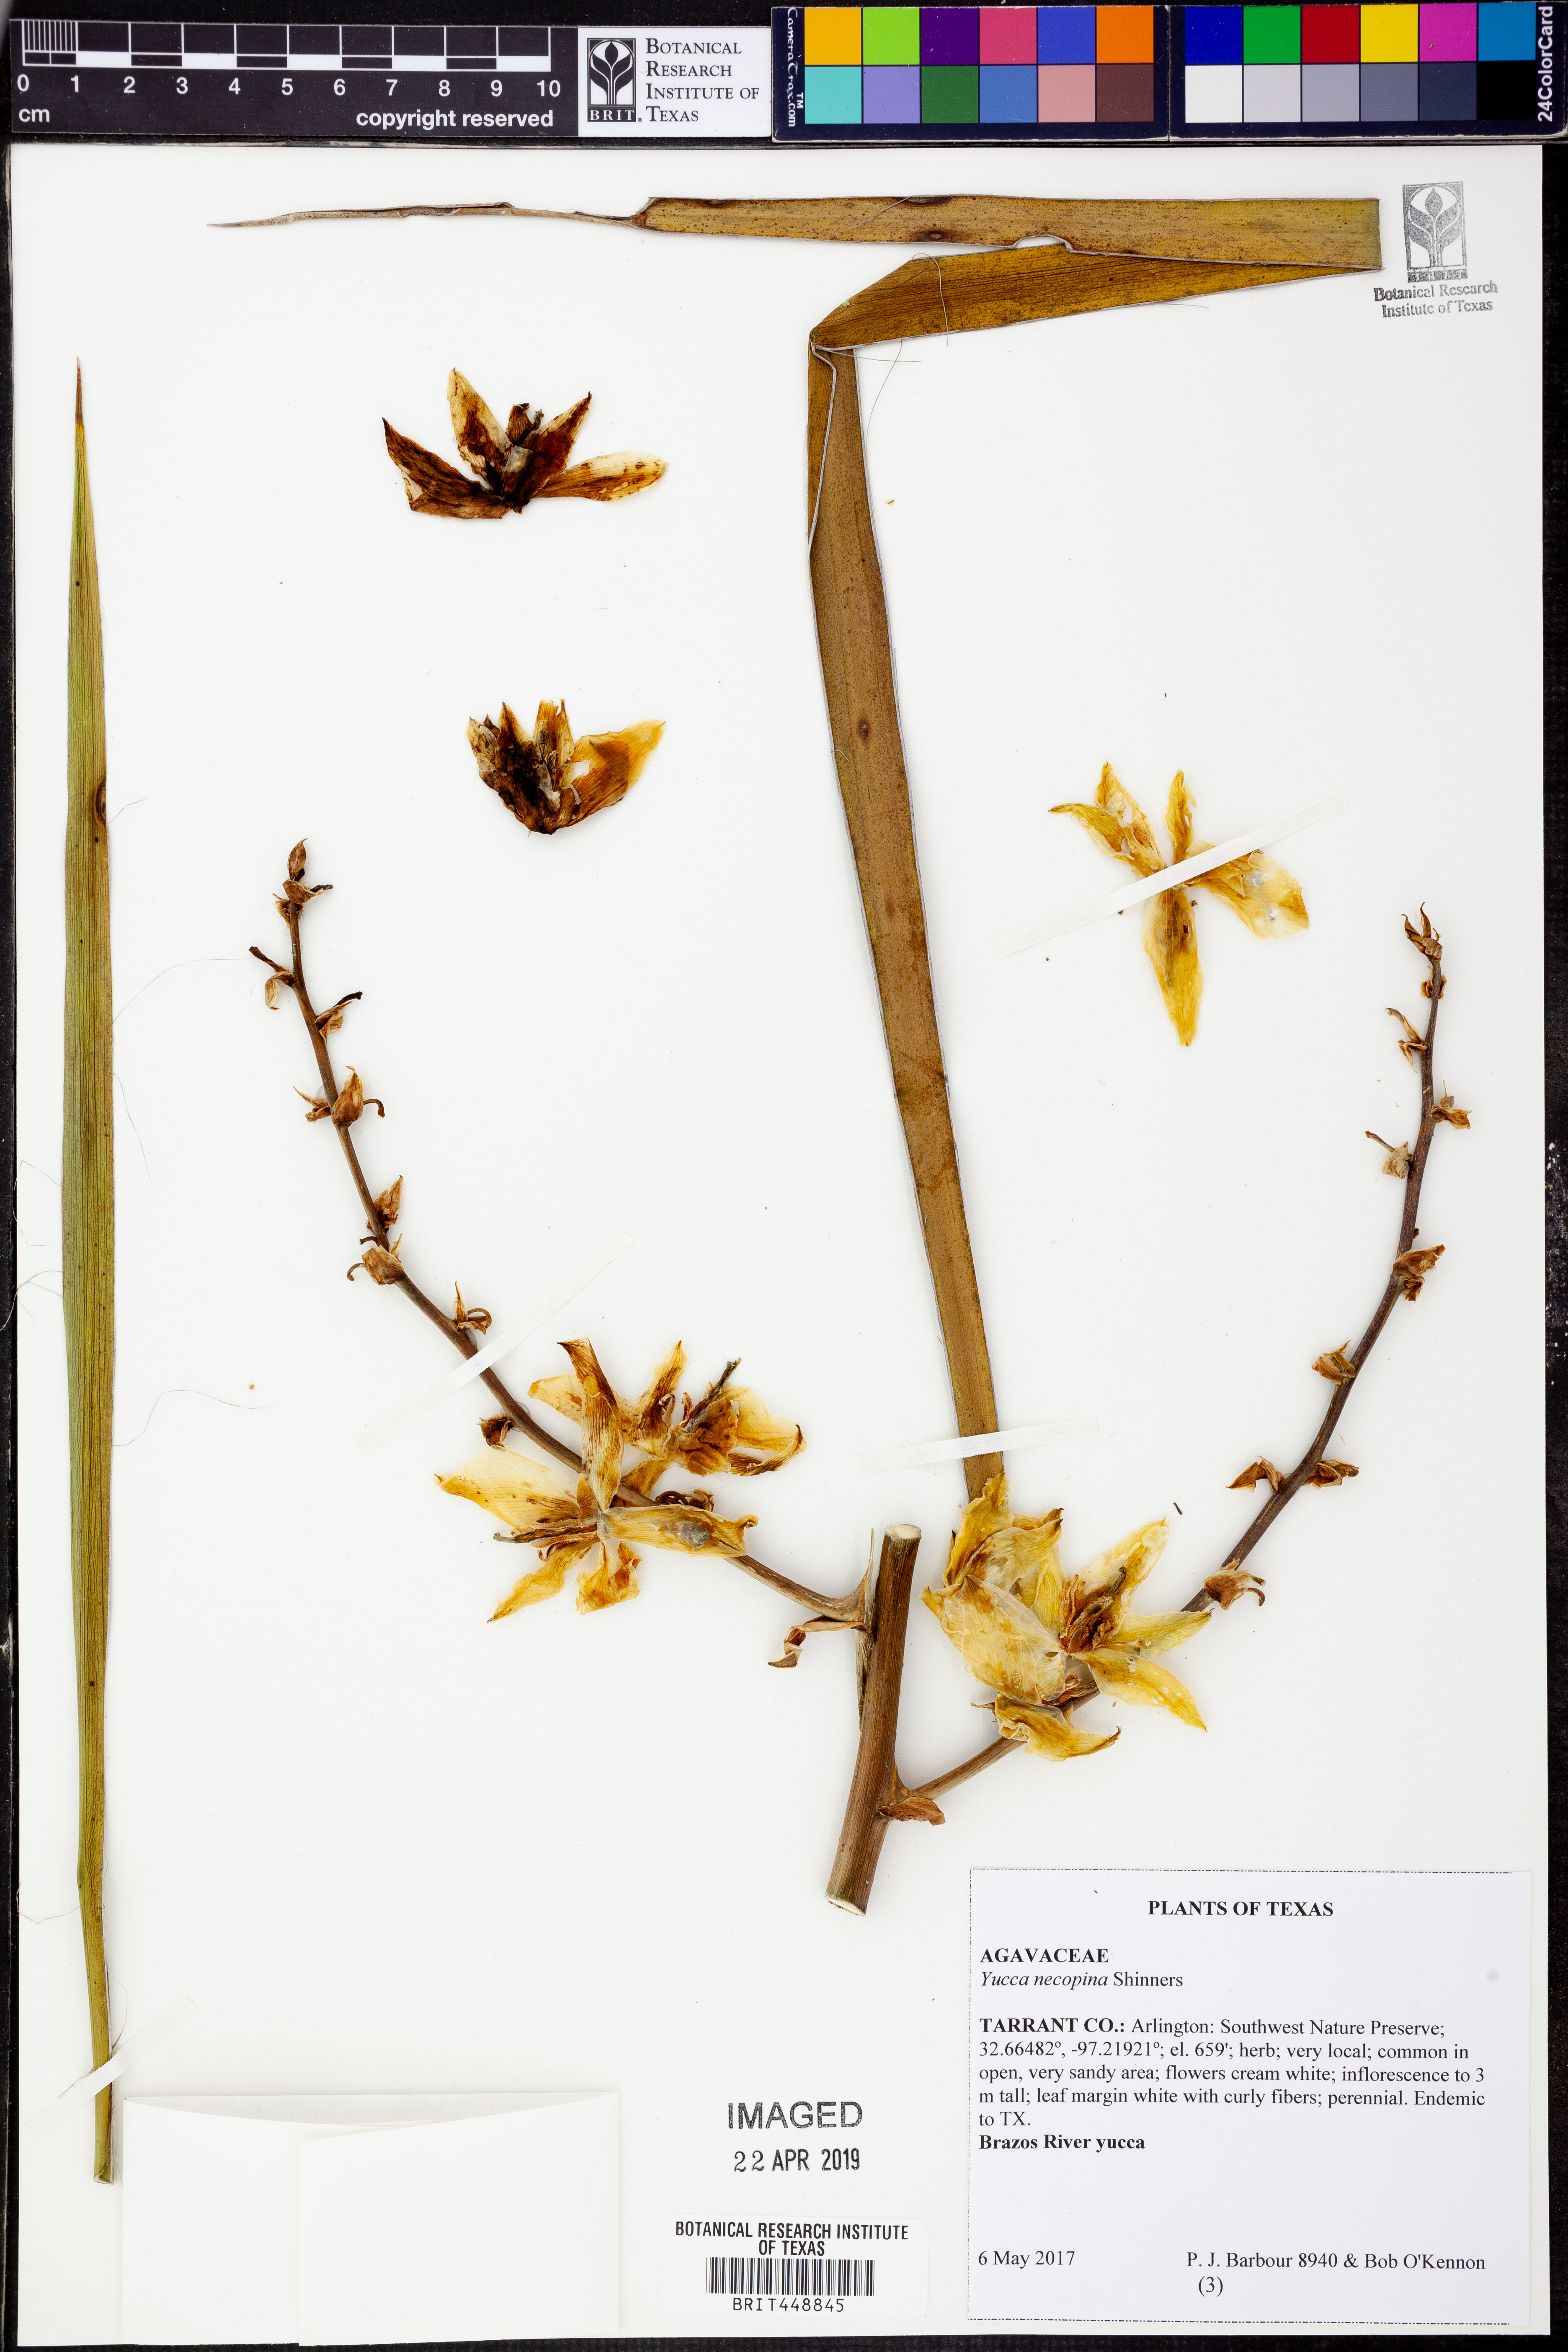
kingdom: Plantae
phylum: Tracheophyta
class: Liliopsida
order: Asparagales
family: Asparagaceae
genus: Yucca
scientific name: Yucca necopina
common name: Glen rose yucca
